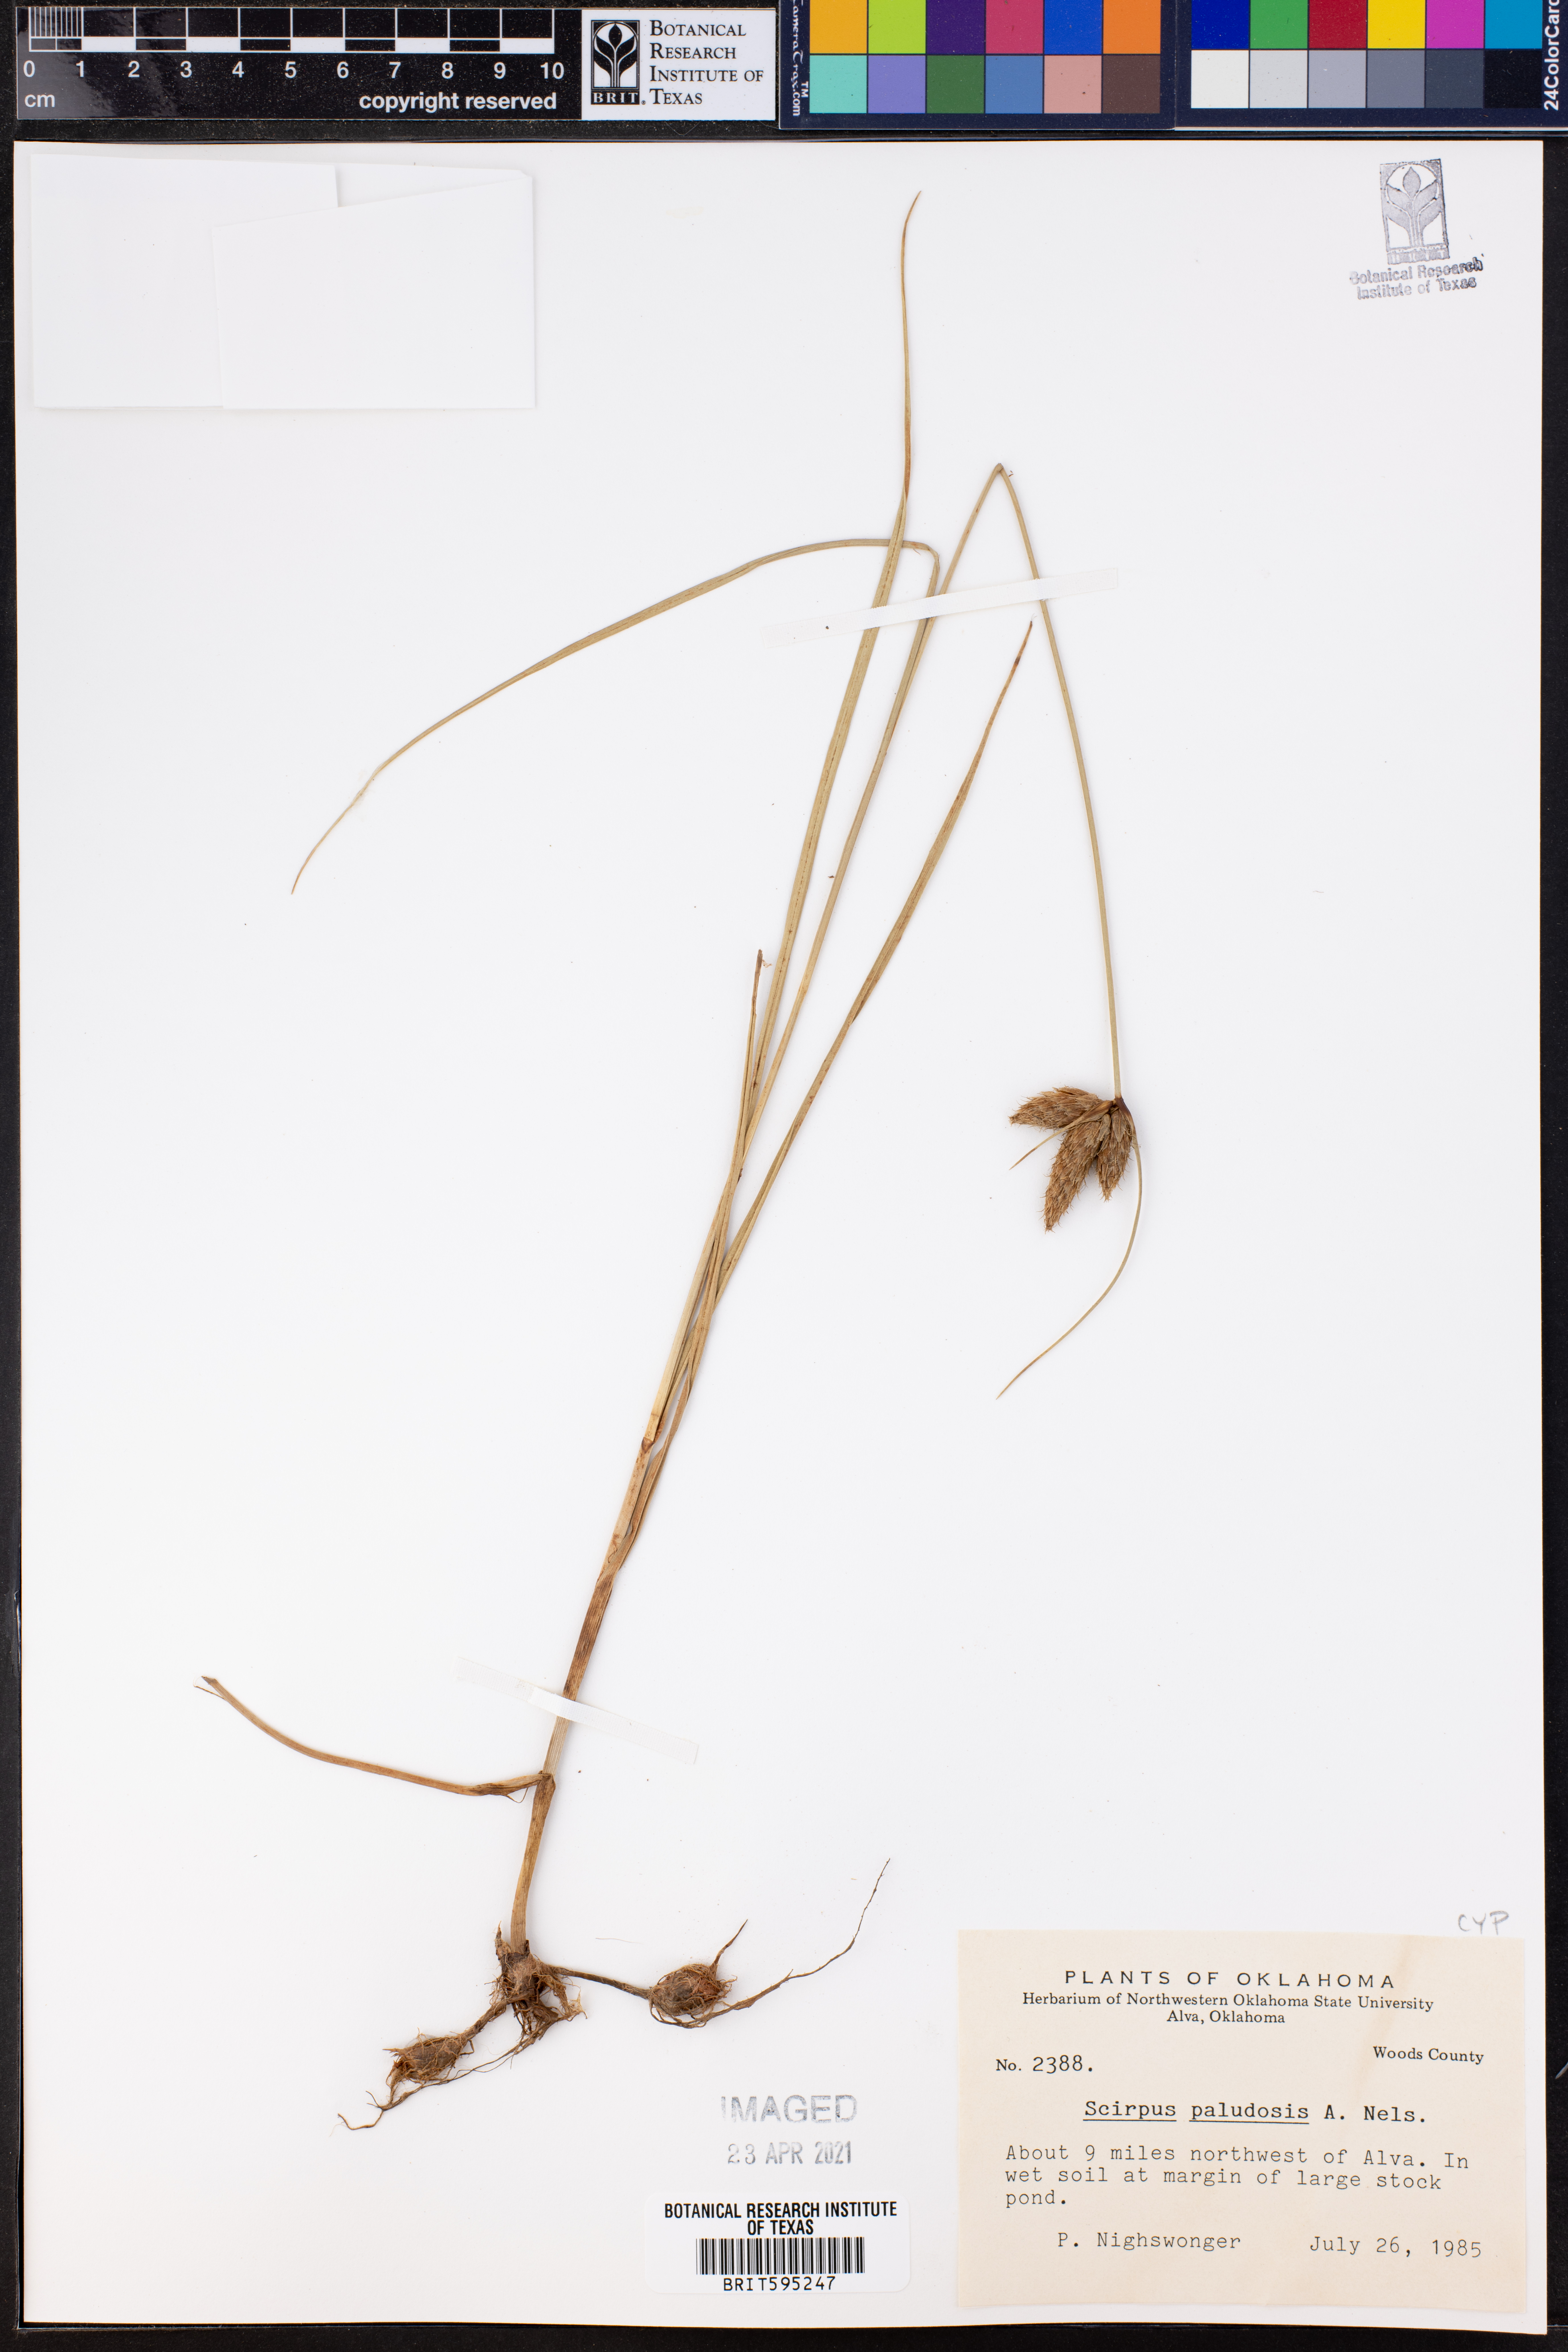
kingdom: Plantae
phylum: Tracheophyta
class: Liliopsida
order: Poales
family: Cyperaceae
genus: Bolboschoenus
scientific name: Bolboschoenus maritimus
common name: Sea club-rush
